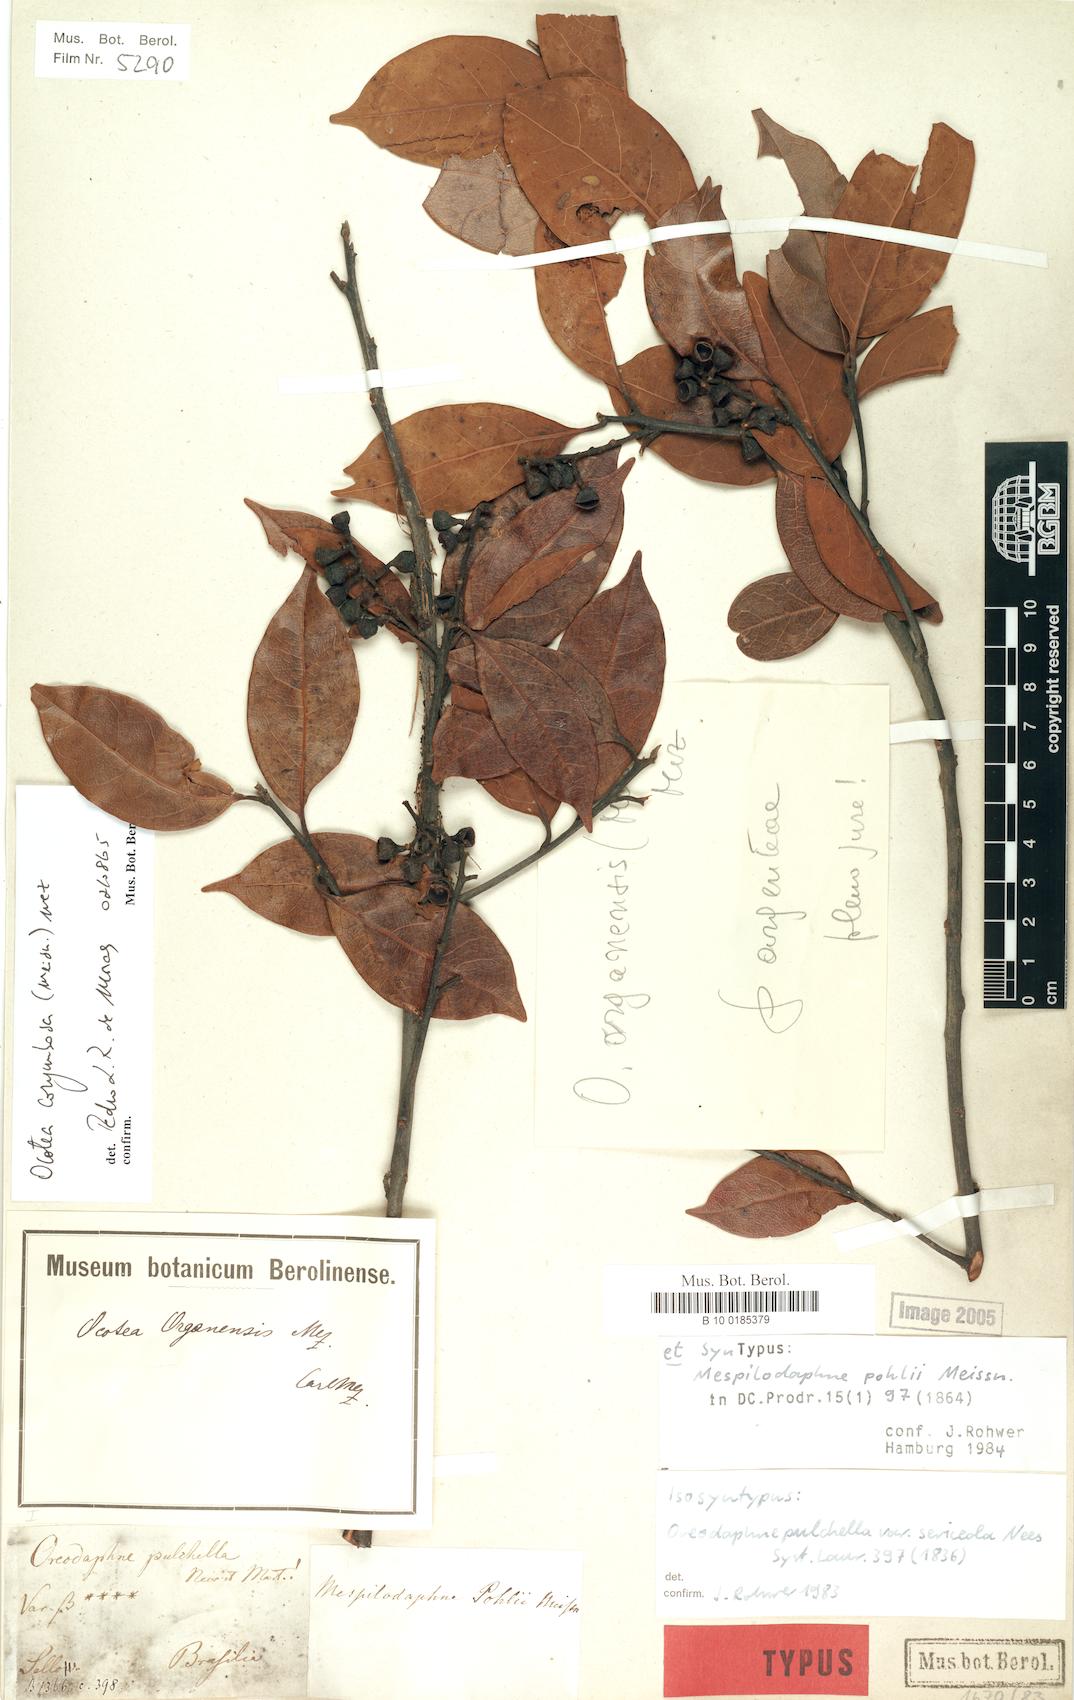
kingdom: Plantae
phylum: Tracheophyta
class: Magnoliopsida
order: Laurales
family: Lauraceae
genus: Mespilodaphne
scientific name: Mespilodaphne corymbosa
